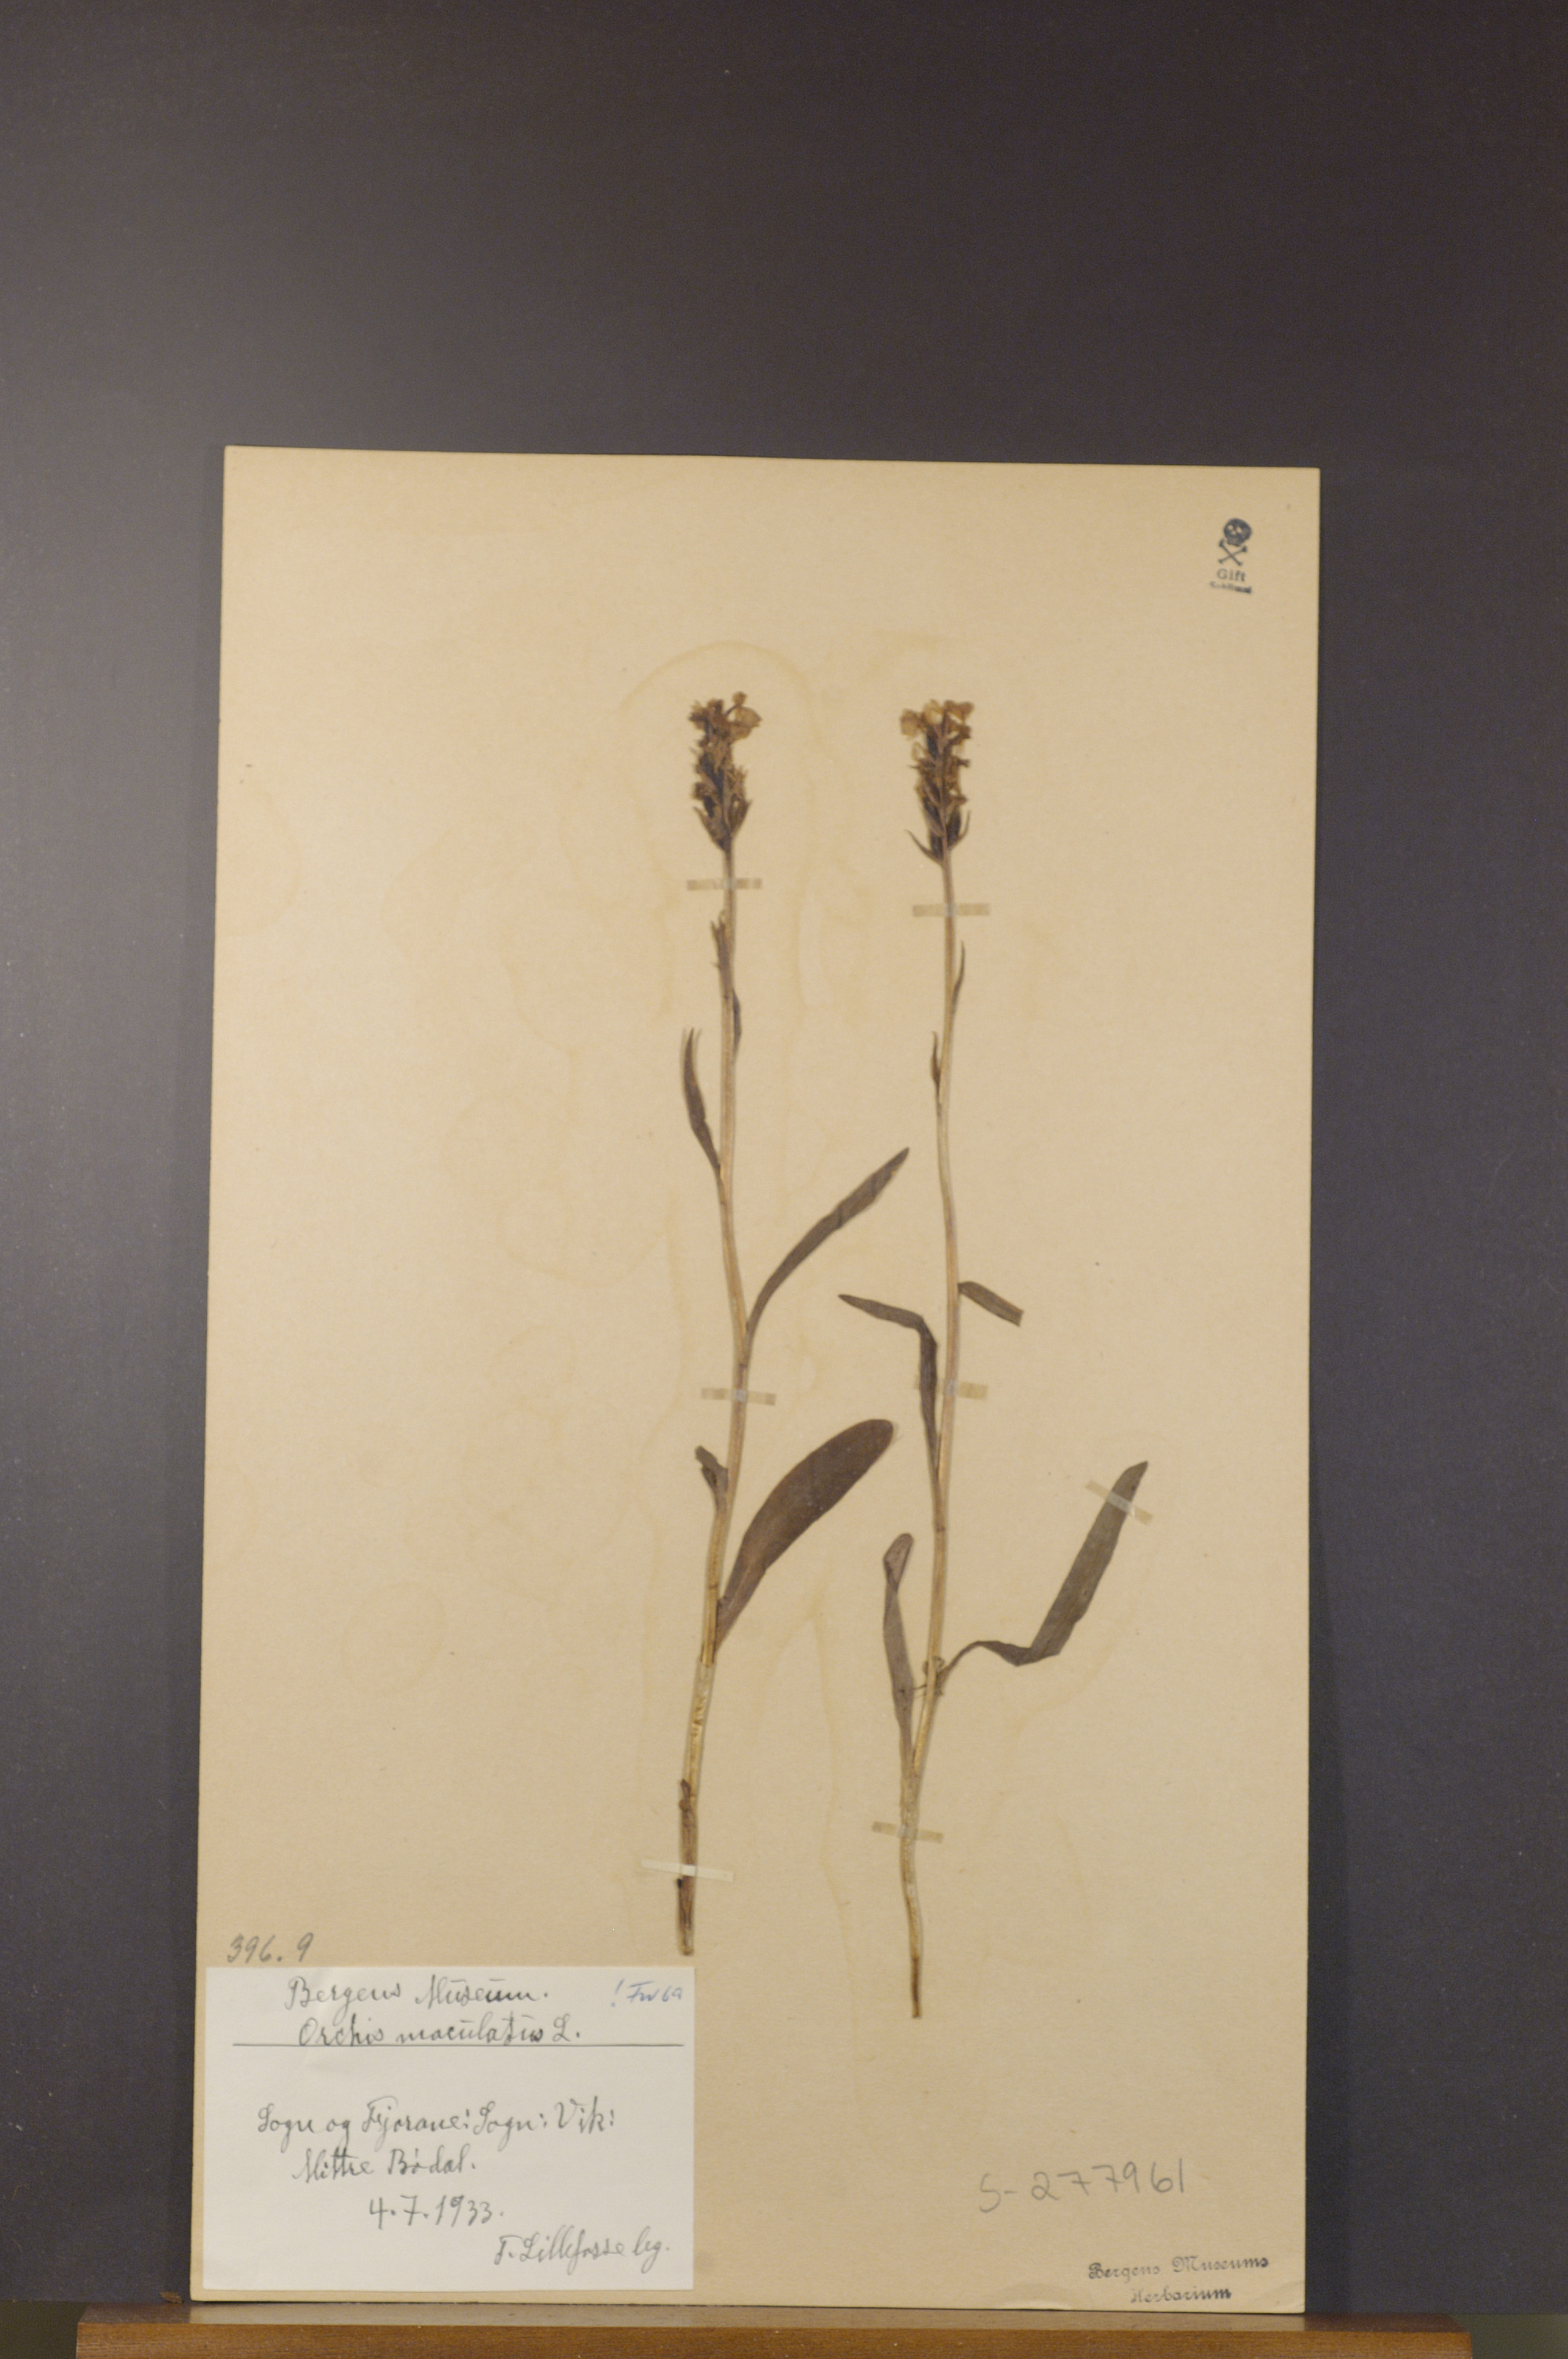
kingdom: Plantae
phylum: Tracheophyta
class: Liliopsida
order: Asparagales
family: Orchidaceae
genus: Dactylorhiza
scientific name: Dactylorhiza maculata
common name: Heath spotted-orchid
